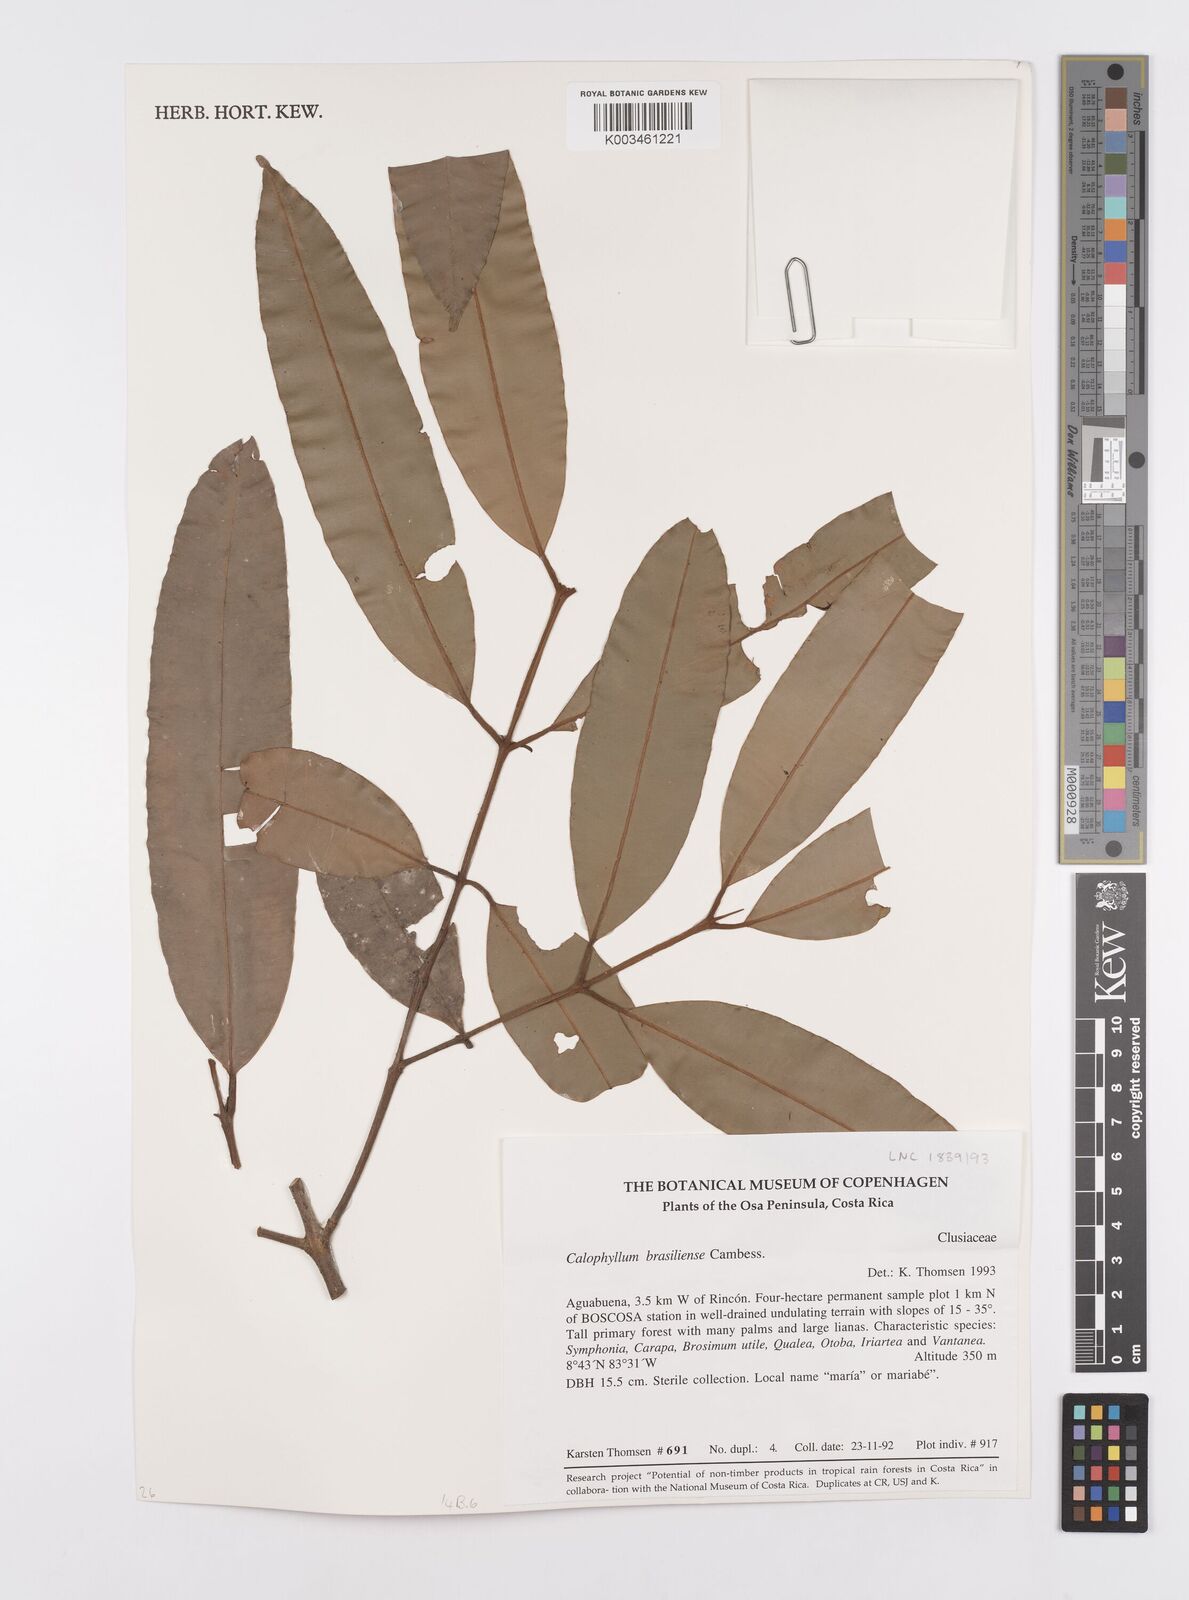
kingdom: Plantae
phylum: Tracheophyta
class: Magnoliopsida
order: Malpighiales
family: Calophyllaceae
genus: Calophyllum
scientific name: Calophyllum brasiliense
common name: Santa maria
